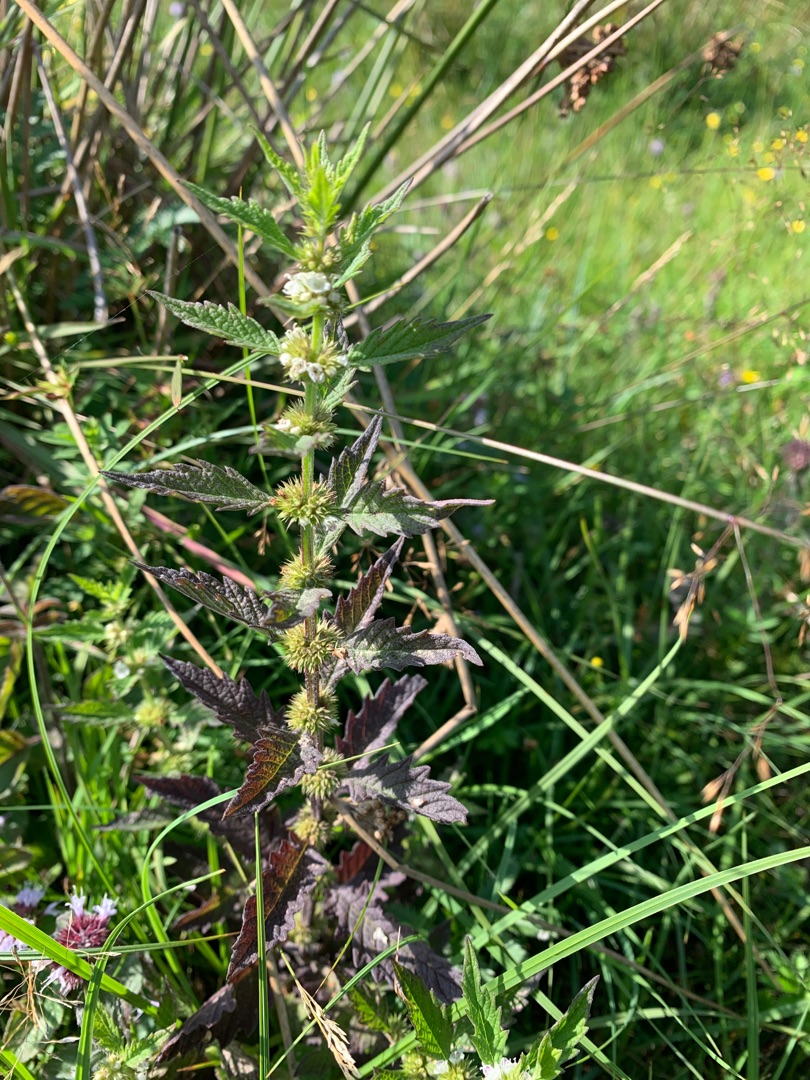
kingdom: Plantae
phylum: Tracheophyta
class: Magnoliopsida
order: Lamiales
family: Lamiaceae
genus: Lycopus
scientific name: Lycopus europaeus
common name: Sværtevæld
